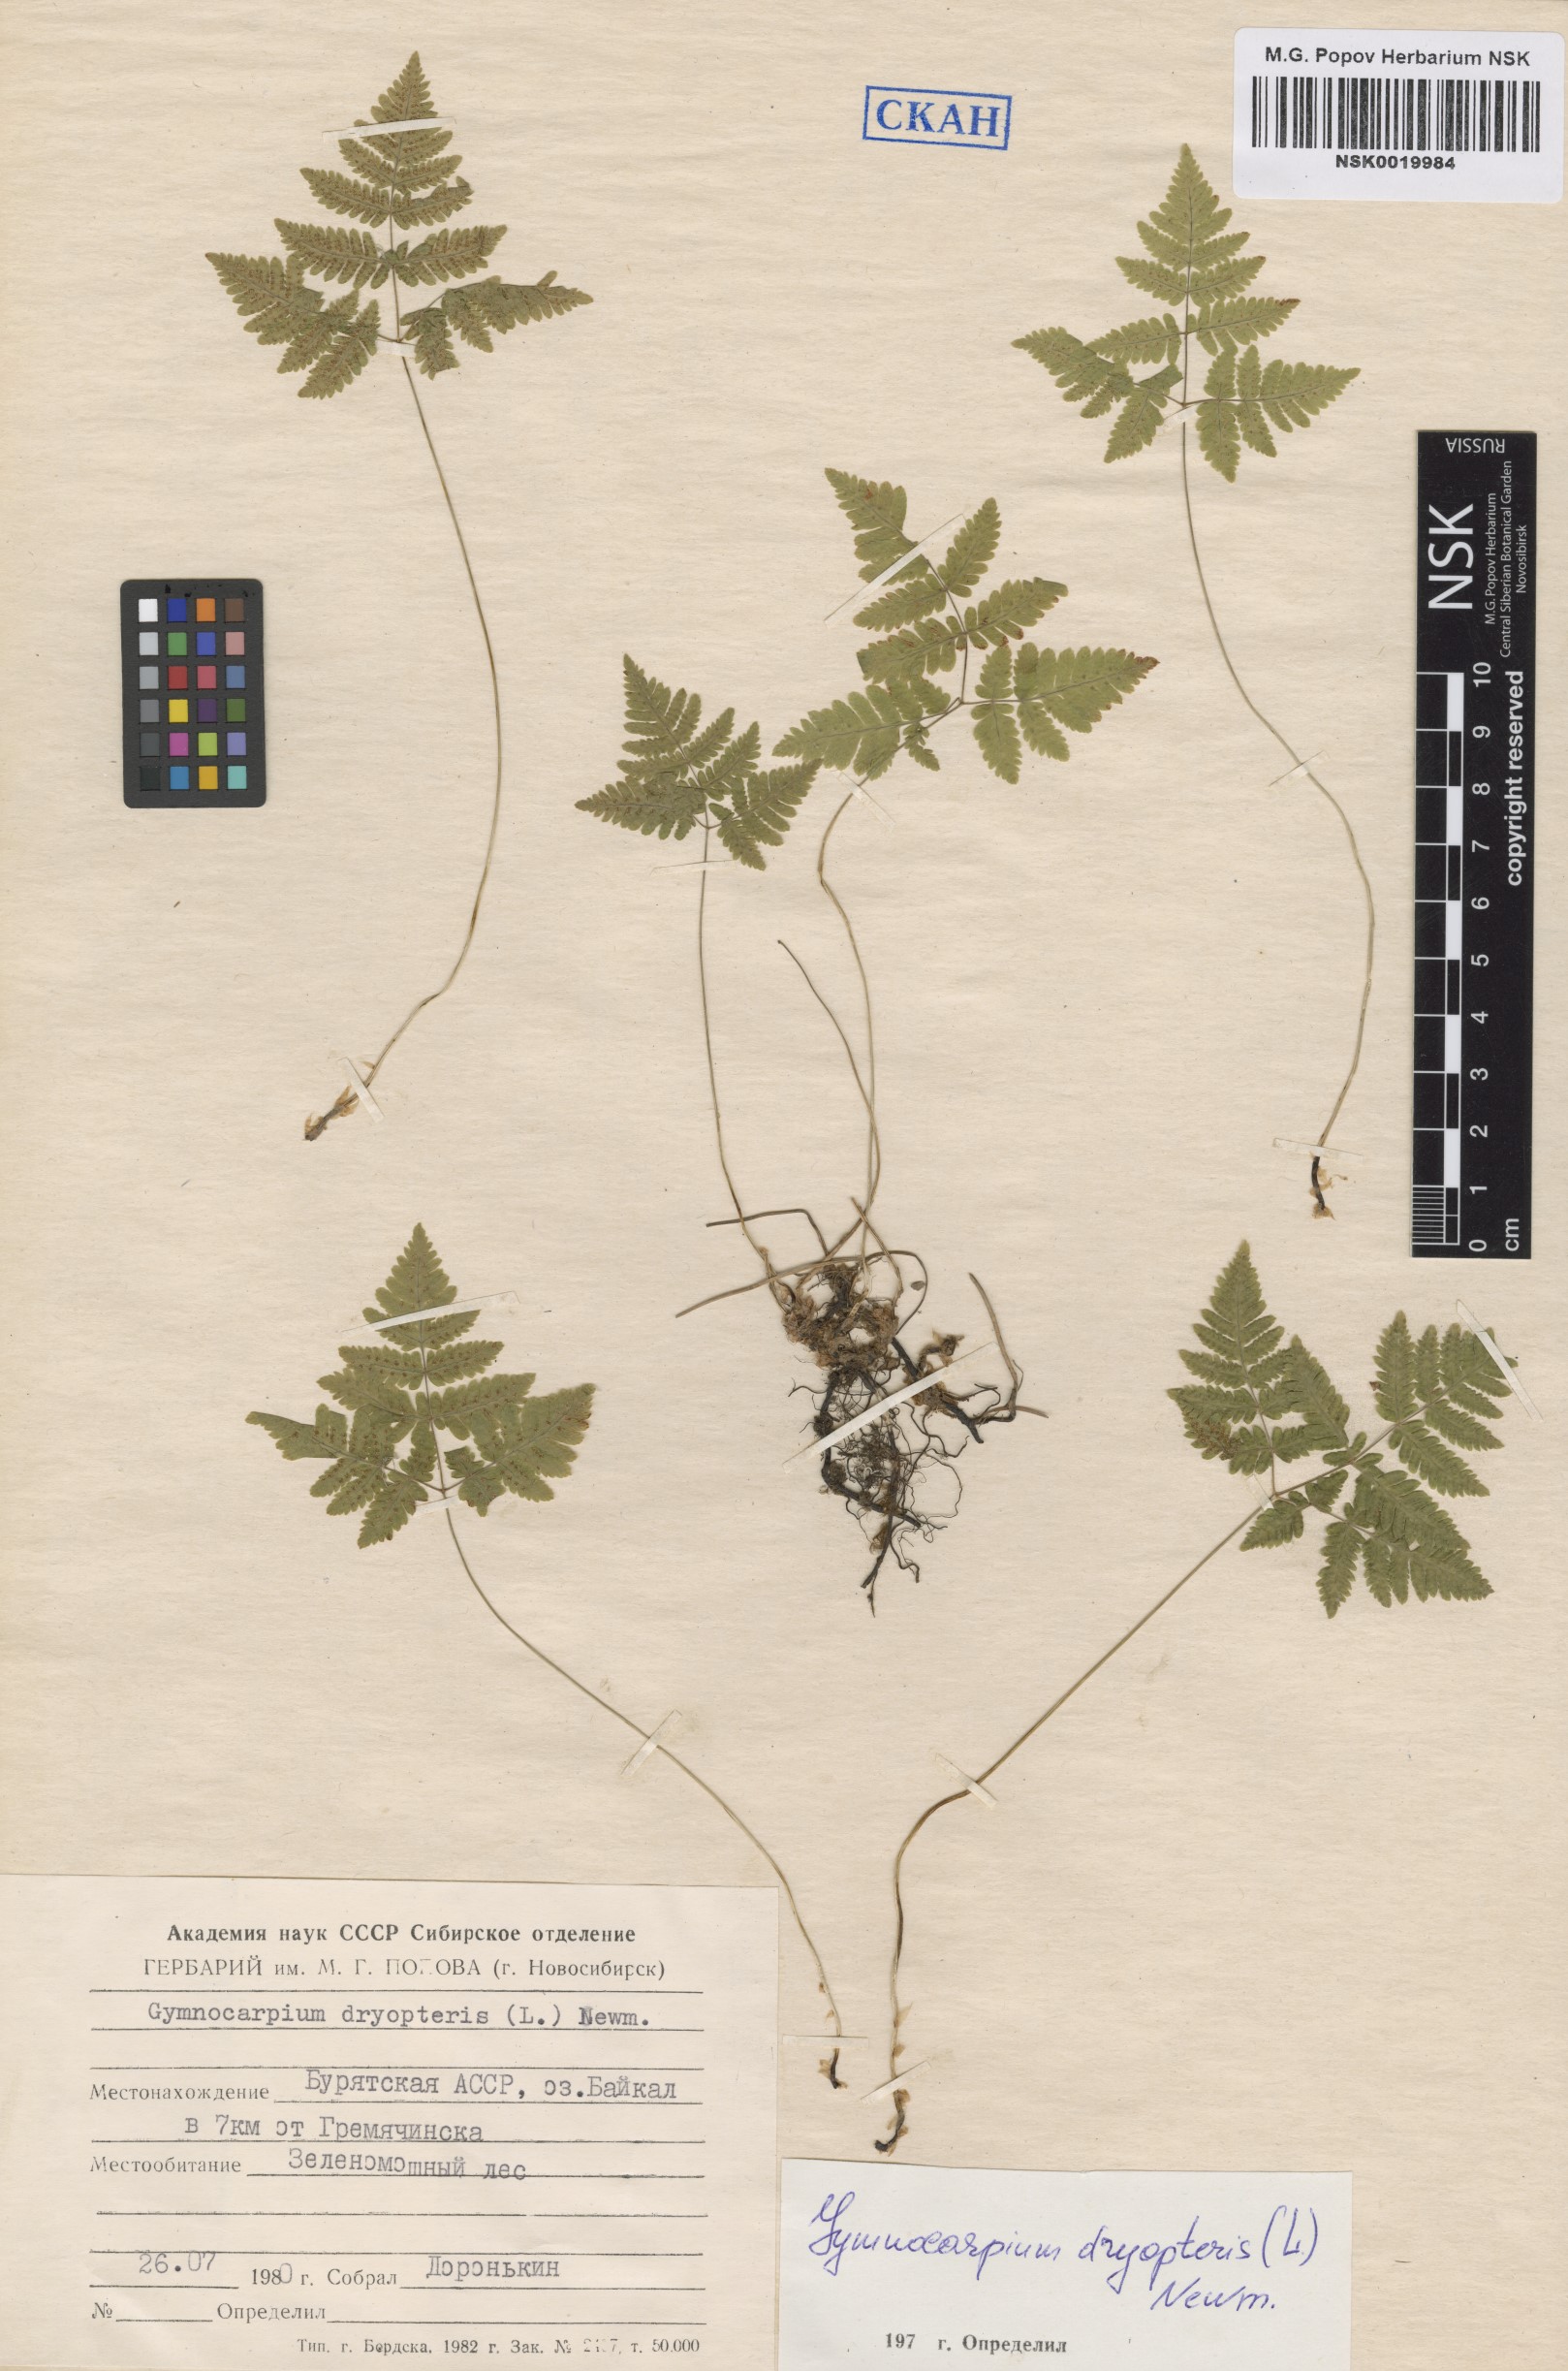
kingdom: Plantae
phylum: Tracheophyta
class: Polypodiopsida
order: Polypodiales
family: Cystopteridaceae
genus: Gymnocarpium
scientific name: Gymnocarpium dryopteris
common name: Oak fern
